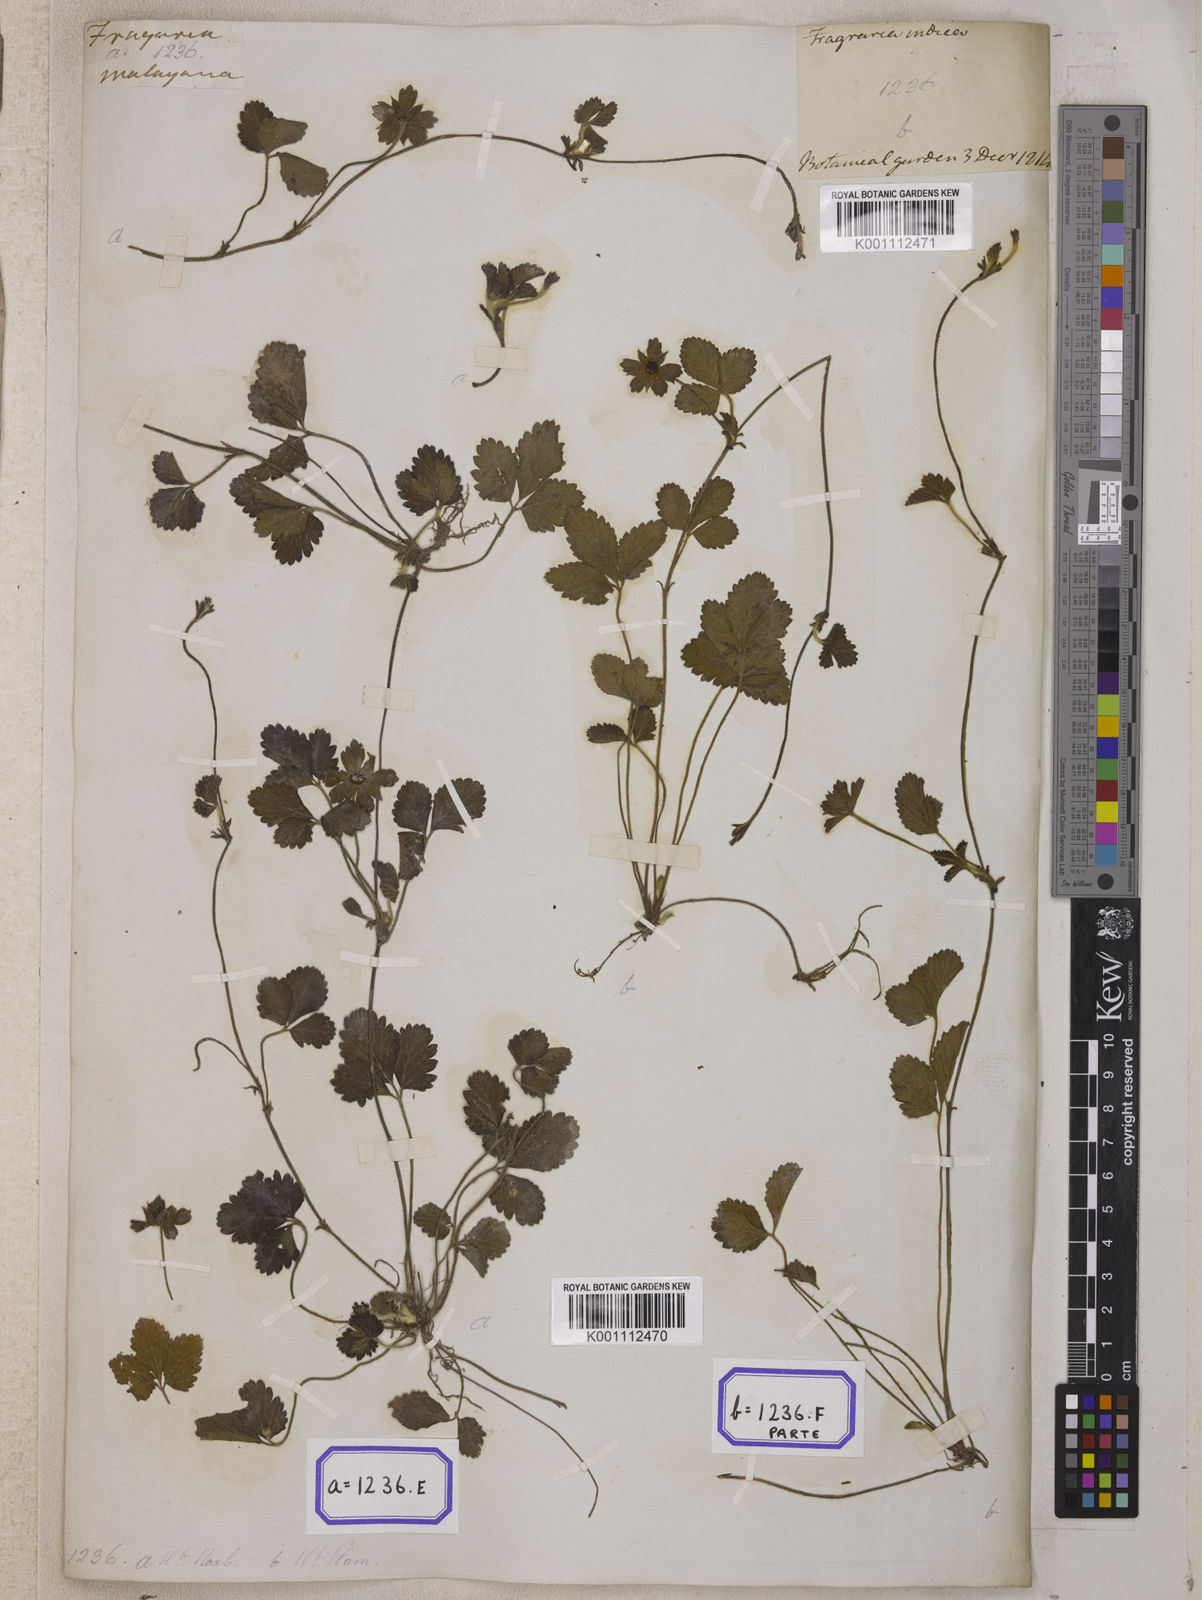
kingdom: Plantae
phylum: Tracheophyta
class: Magnoliopsida
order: Rosales
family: Rosaceae
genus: Potentilla
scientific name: Potentilla indica
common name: Yellow-flowered strawberry
